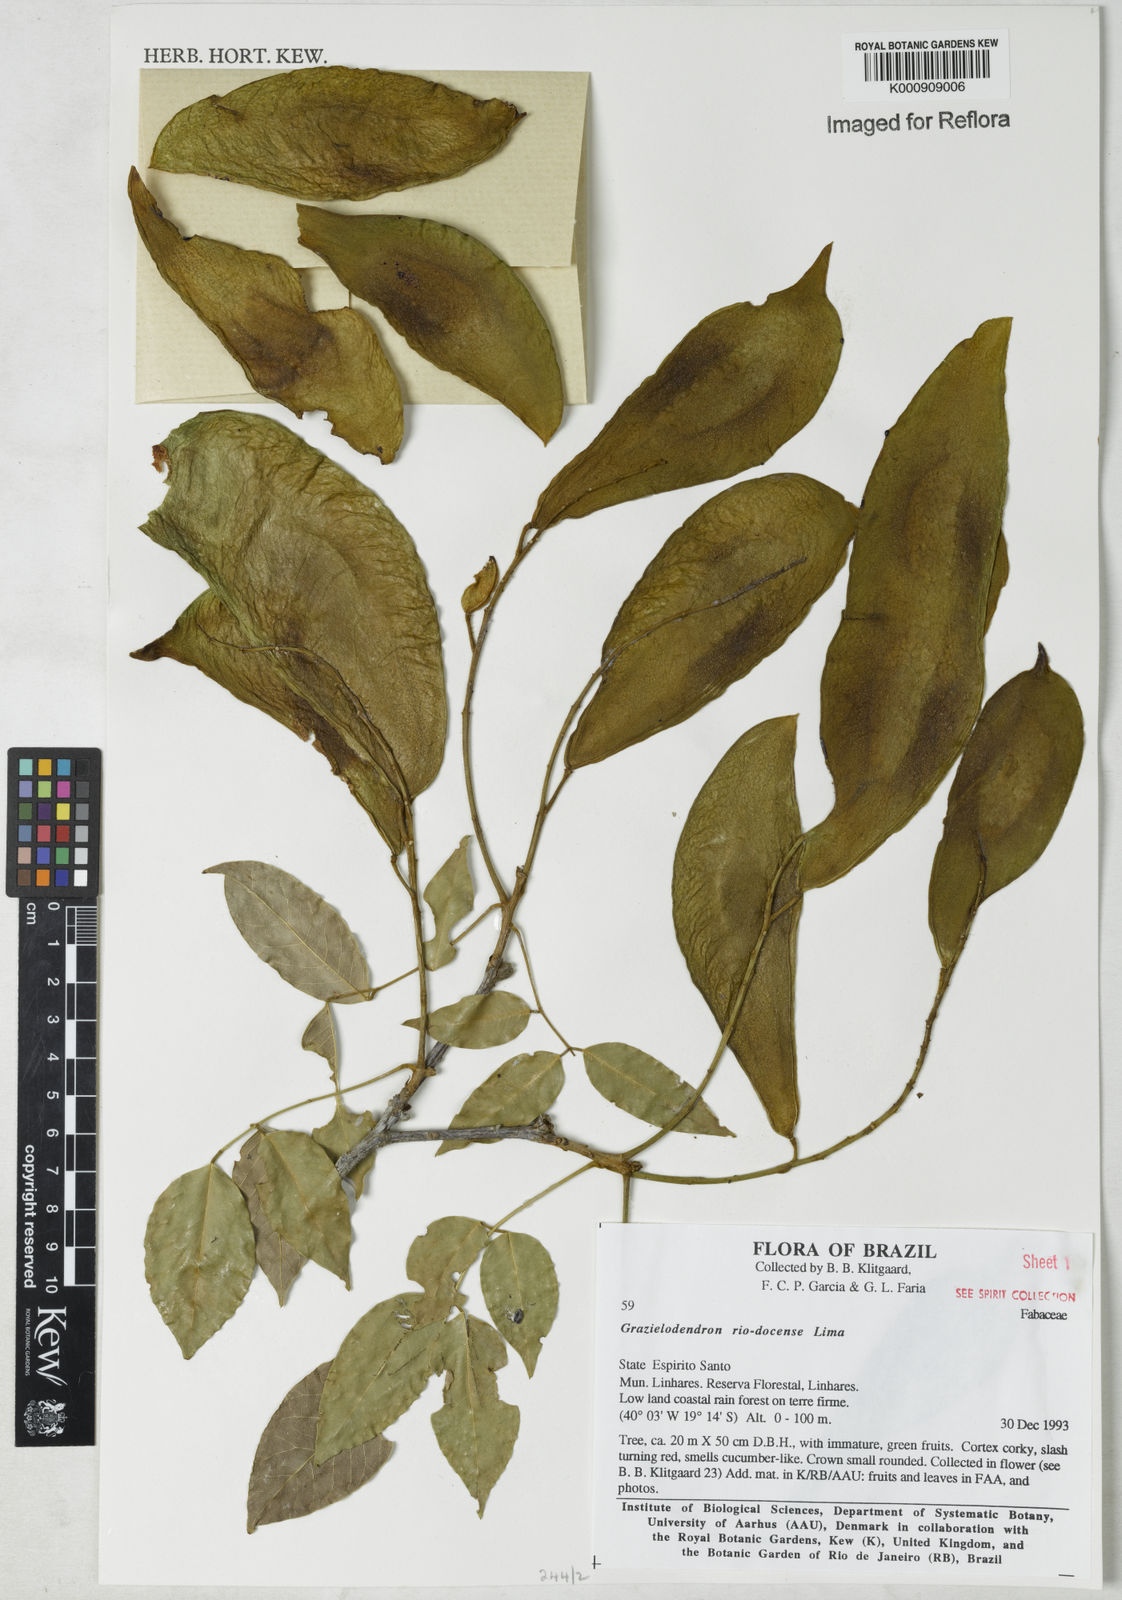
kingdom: Plantae
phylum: Tracheophyta
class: Magnoliopsida
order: Fabales
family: Fabaceae
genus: Grazielodendron
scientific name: Grazielodendron riodocensis
